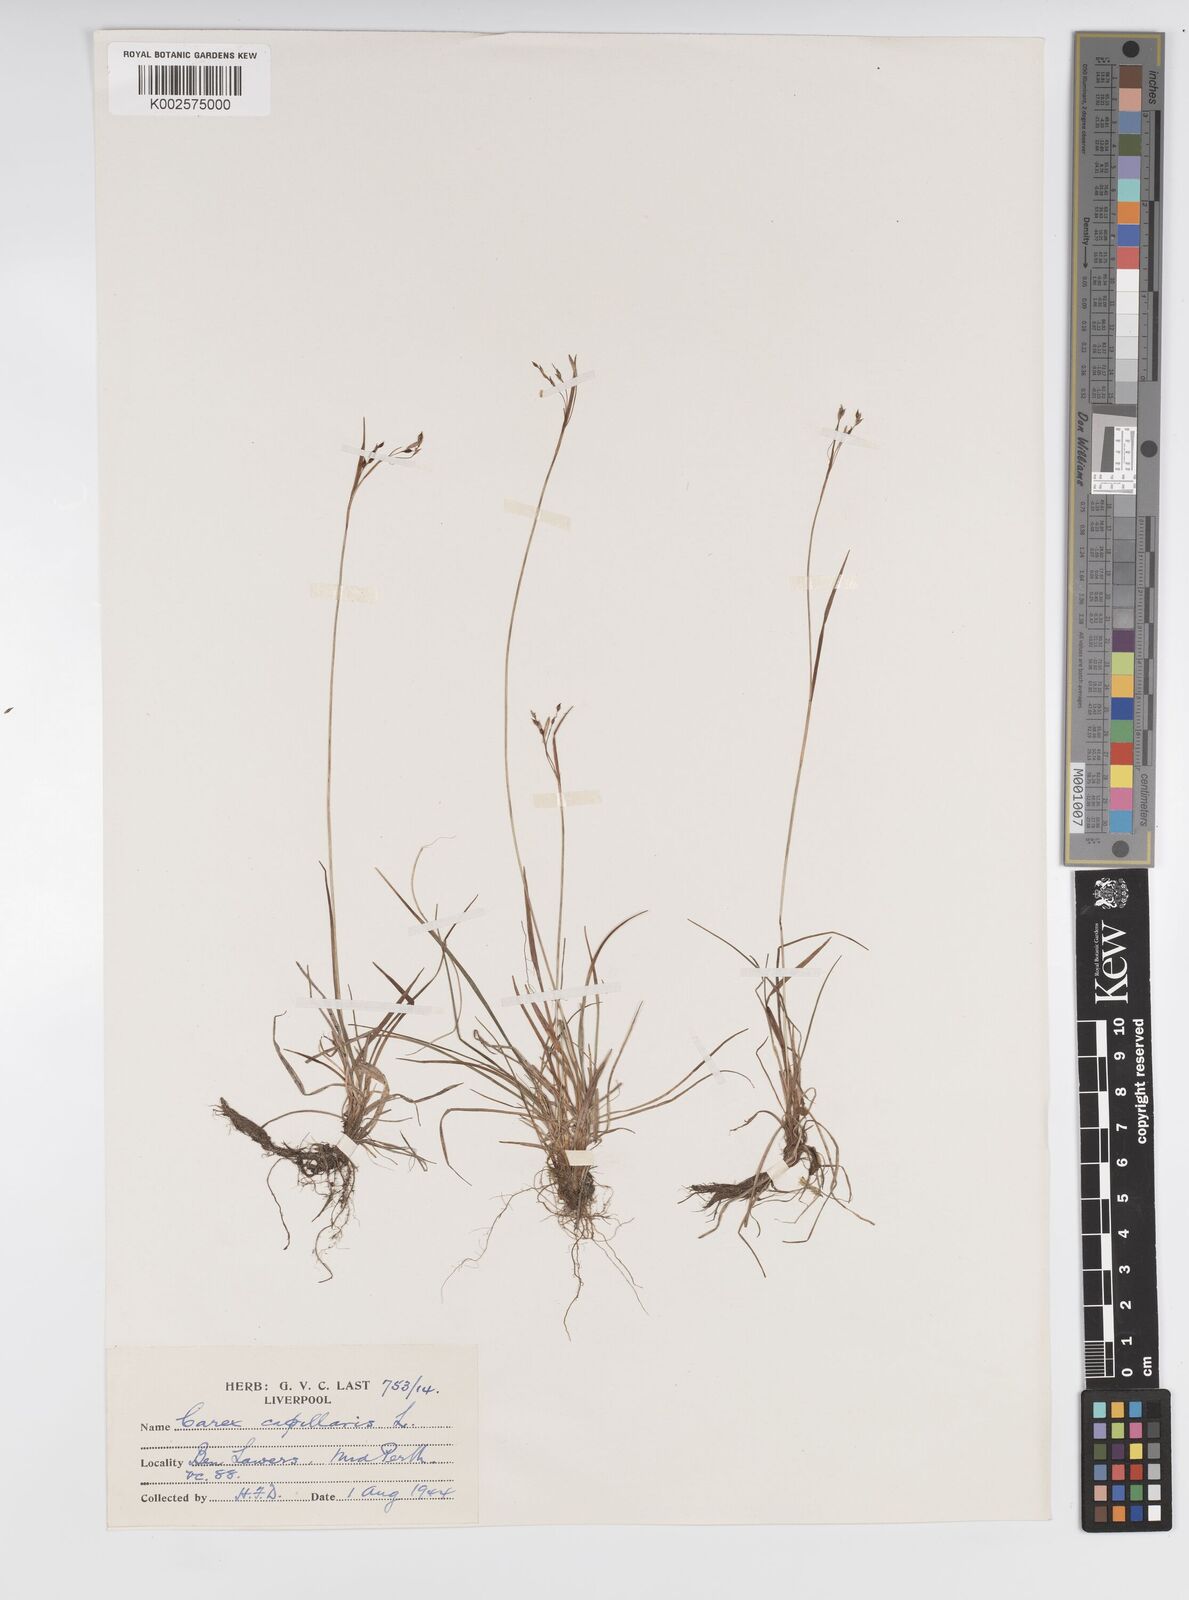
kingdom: Plantae
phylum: Tracheophyta
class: Liliopsida
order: Poales
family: Cyperaceae
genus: Carex
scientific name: Carex capillaris
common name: Hair sedge
